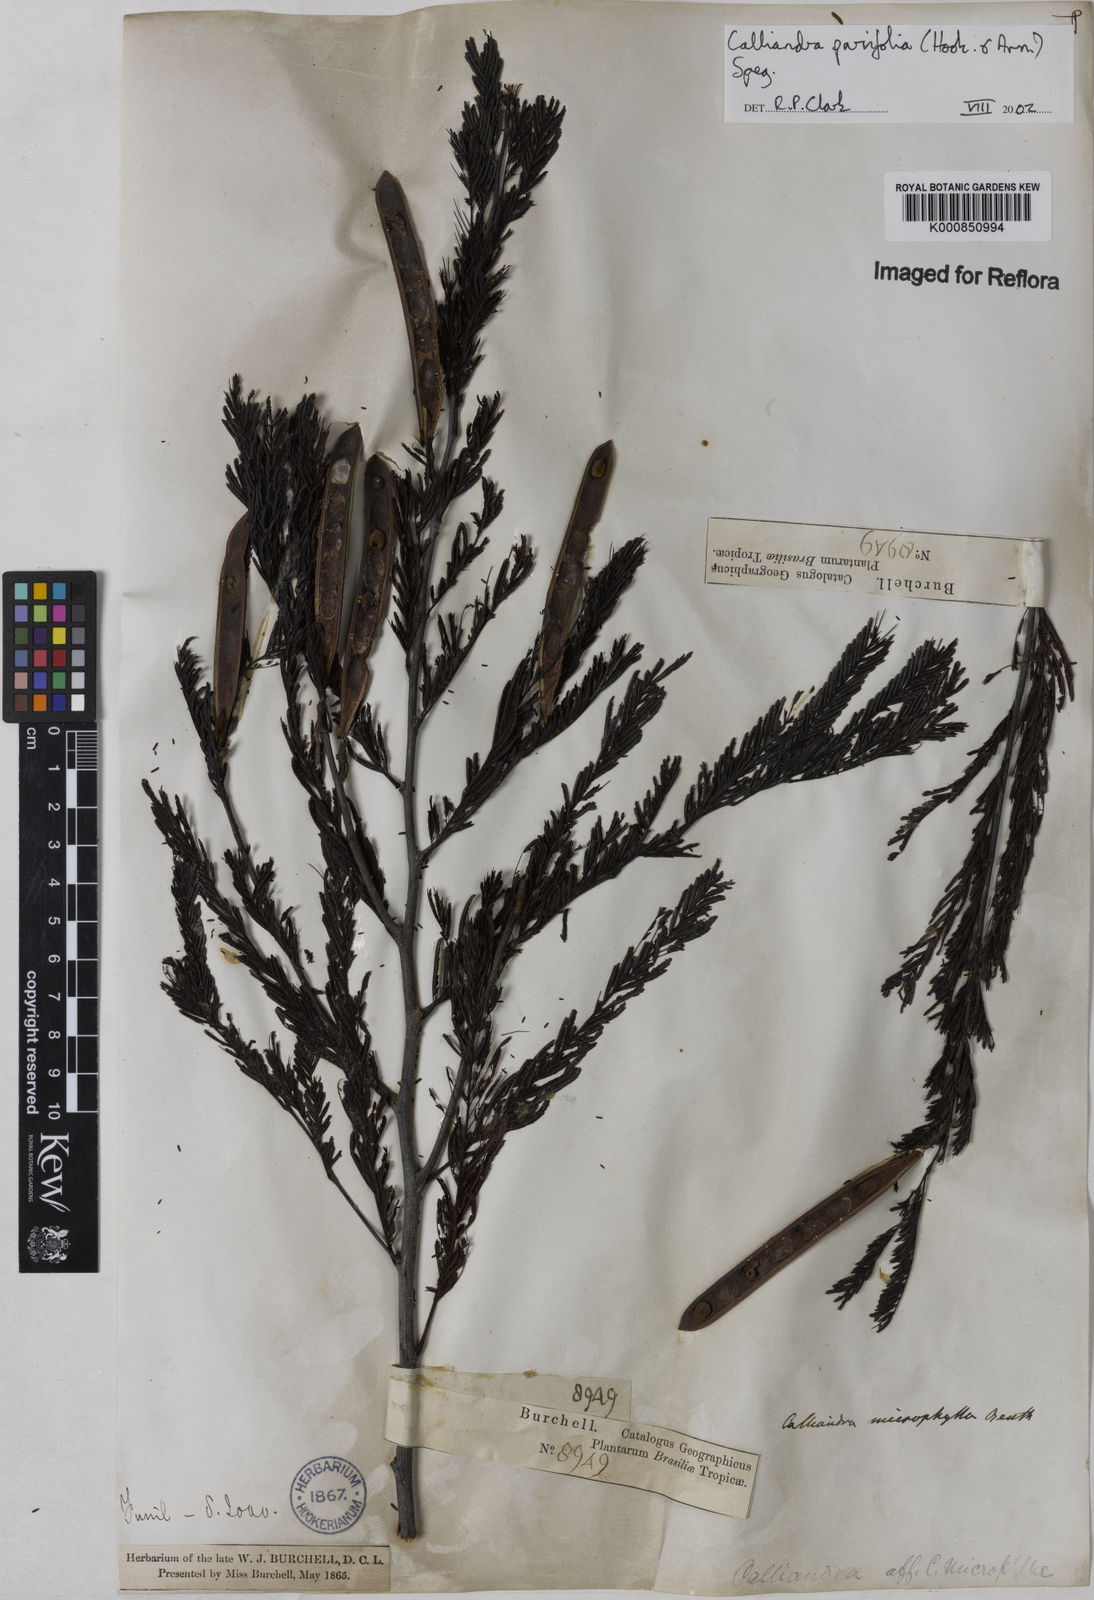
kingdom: Plantae
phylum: Tracheophyta
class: Magnoliopsida
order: Fabales
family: Fabaceae
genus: Calliandra
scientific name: Calliandra parvifolia
